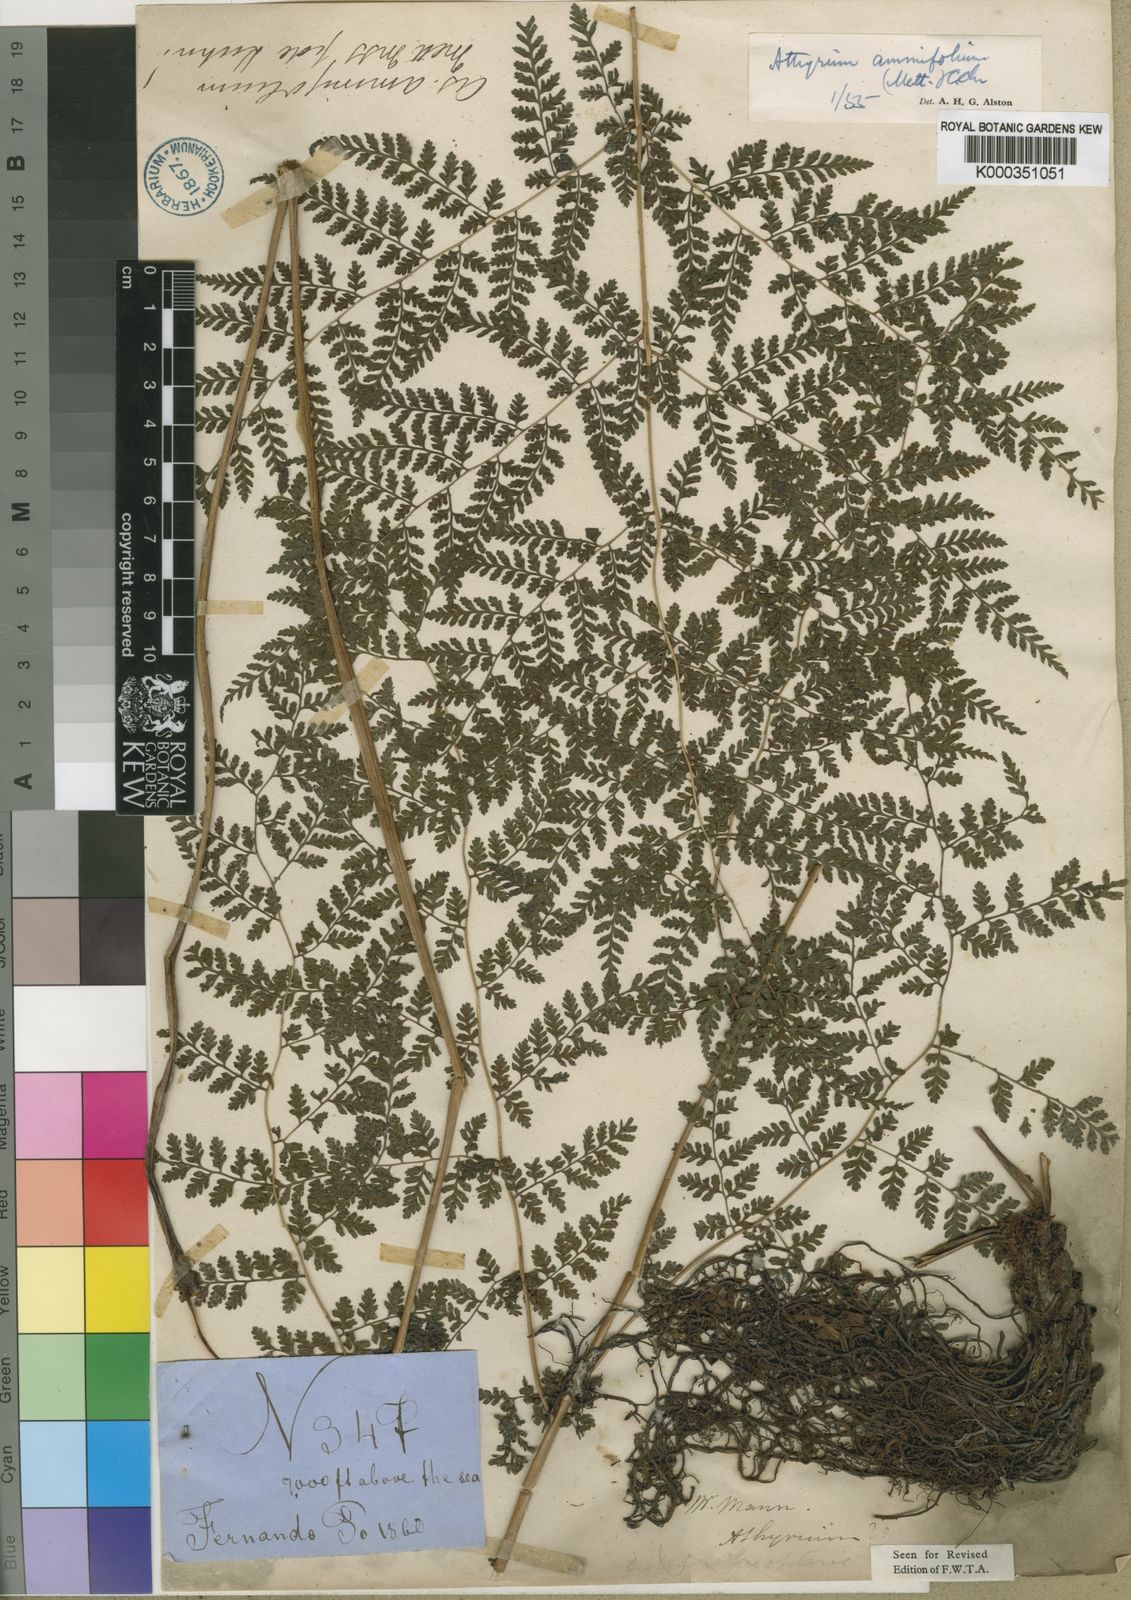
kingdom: Plantae
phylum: Tracheophyta
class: Polypodiopsida
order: Polypodiales
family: Athyriaceae
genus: Athyrium
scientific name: Athyrium ammifolium
